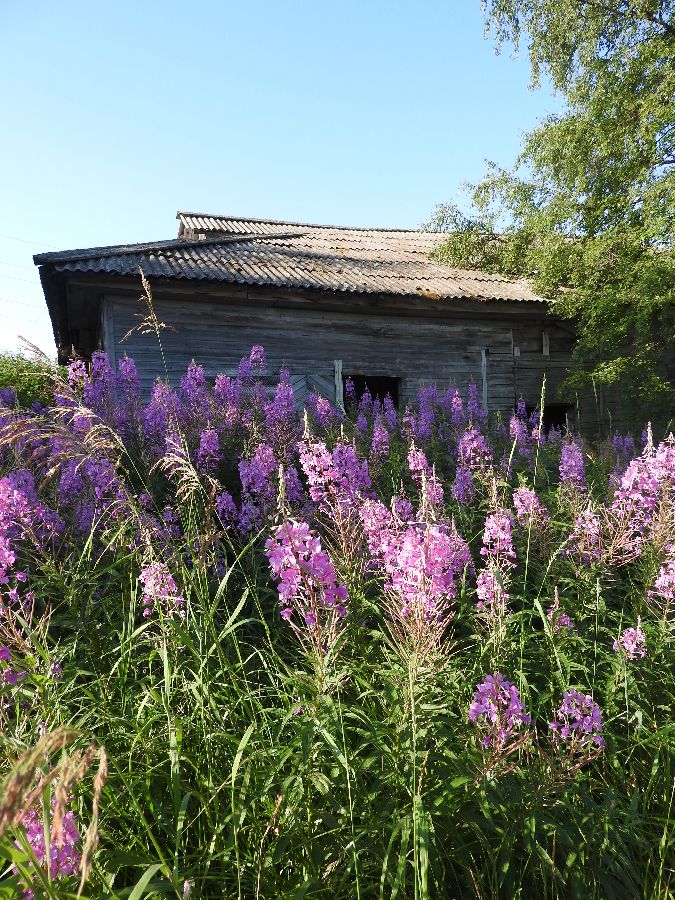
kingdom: Plantae
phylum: Tracheophyta
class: Magnoliopsida
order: Myrtales
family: Onagraceae
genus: Chamaenerion
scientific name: Chamaenerion angustifolium
